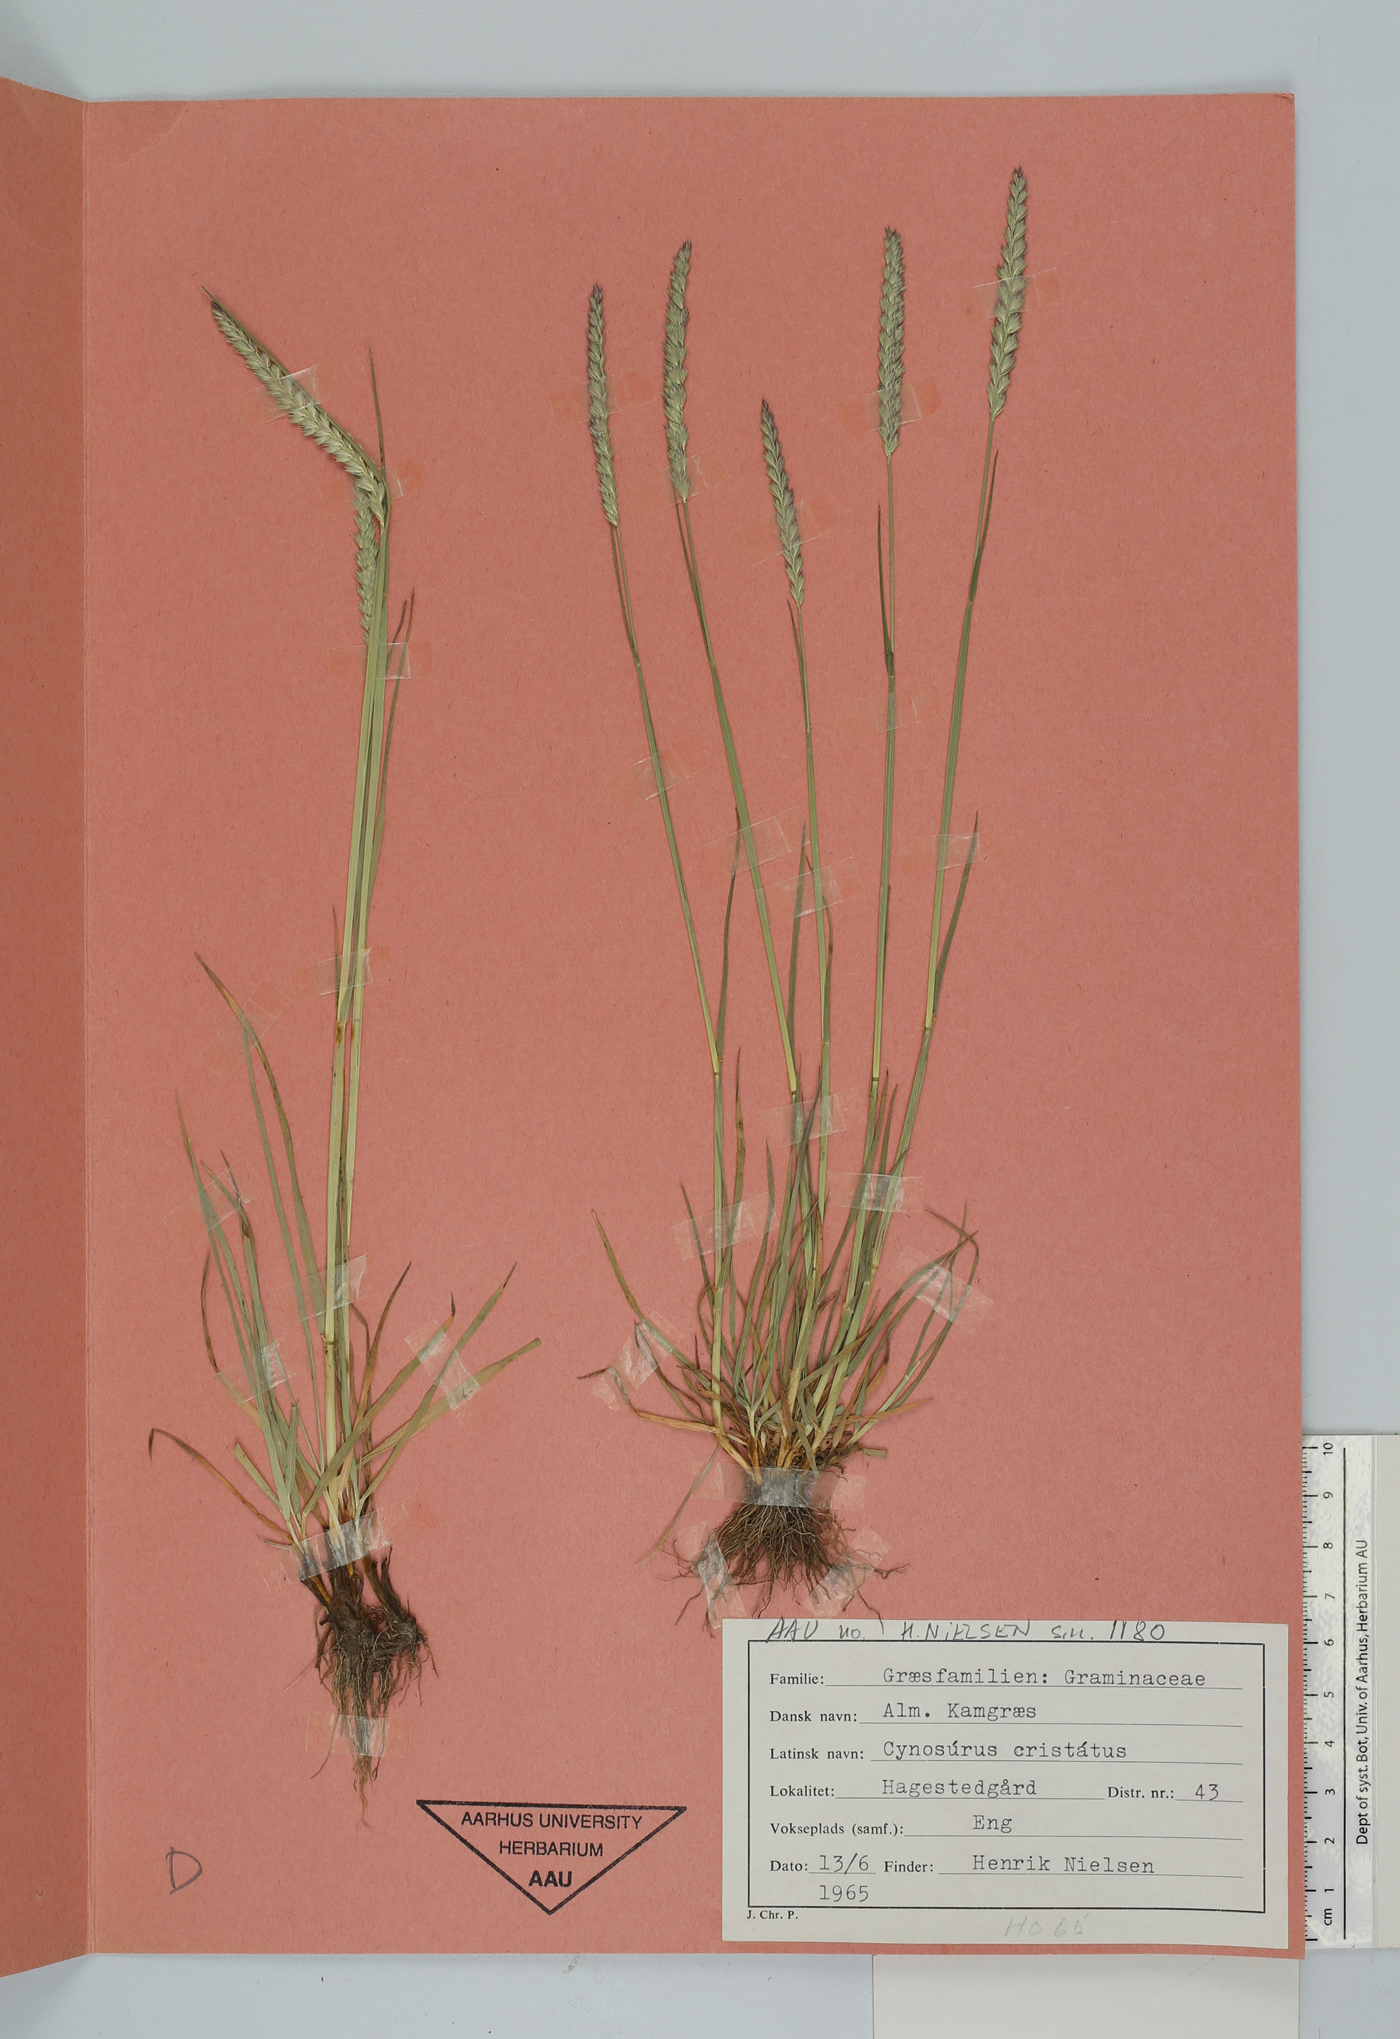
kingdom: Plantae
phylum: Tracheophyta
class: Liliopsida
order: Poales
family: Poaceae
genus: Cynosurus
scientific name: Cynosurus cristatus
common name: Crested dog's-tail
